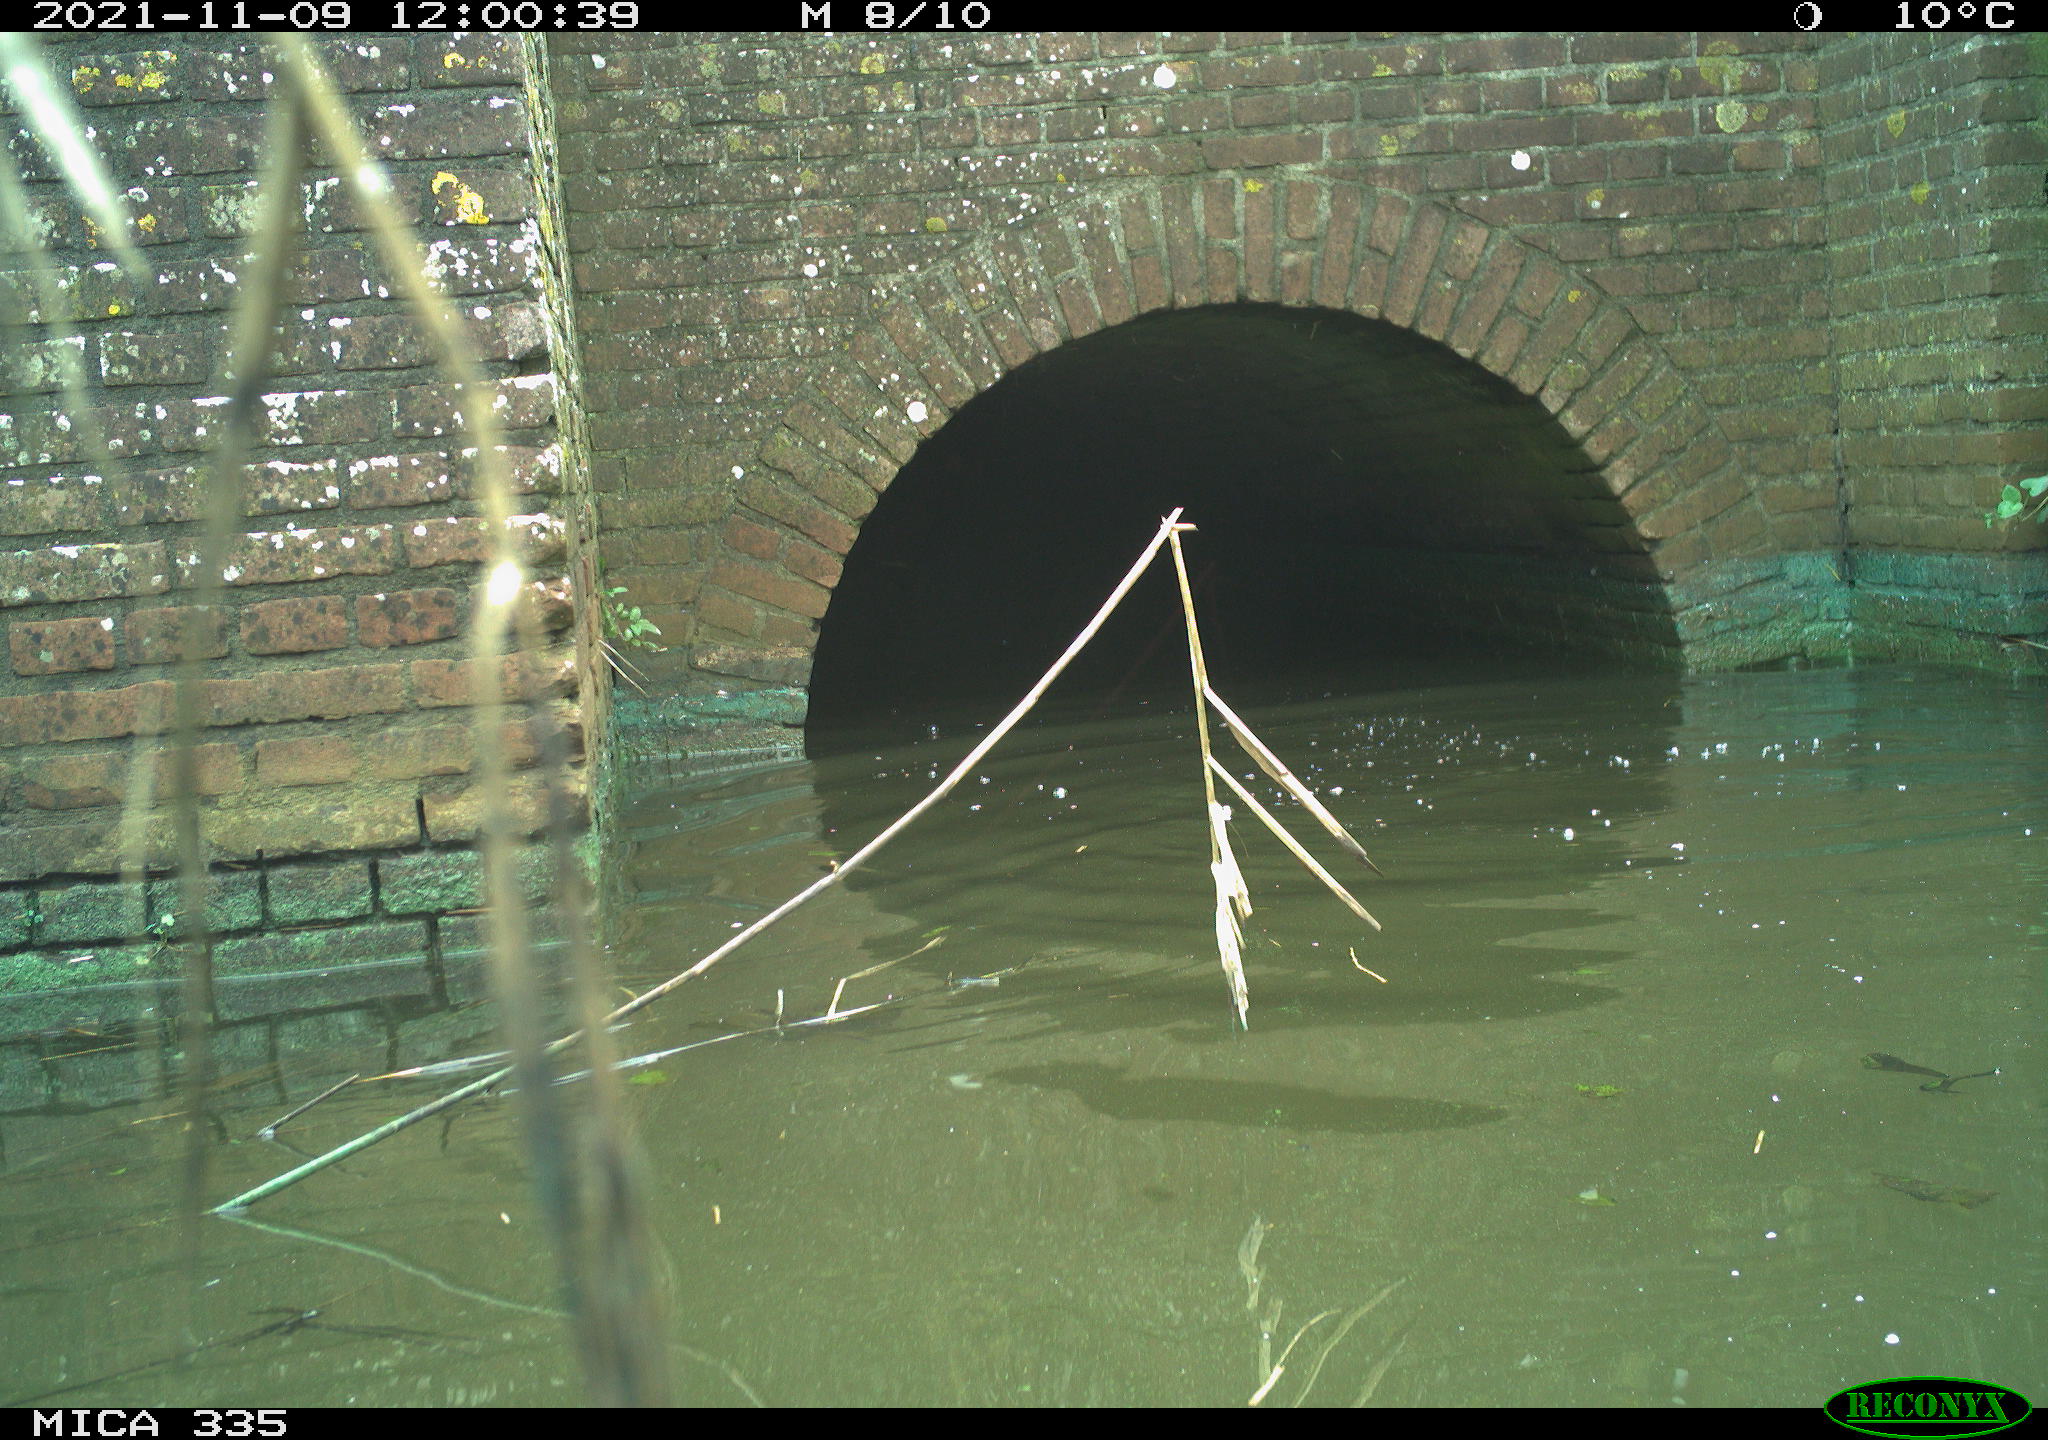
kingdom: Animalia
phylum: Chordata
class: Aves
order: Suliformes
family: Phalacrocoracidae
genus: Phalacrocorax
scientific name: Phalacrocorax carbo
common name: Great cormorant
